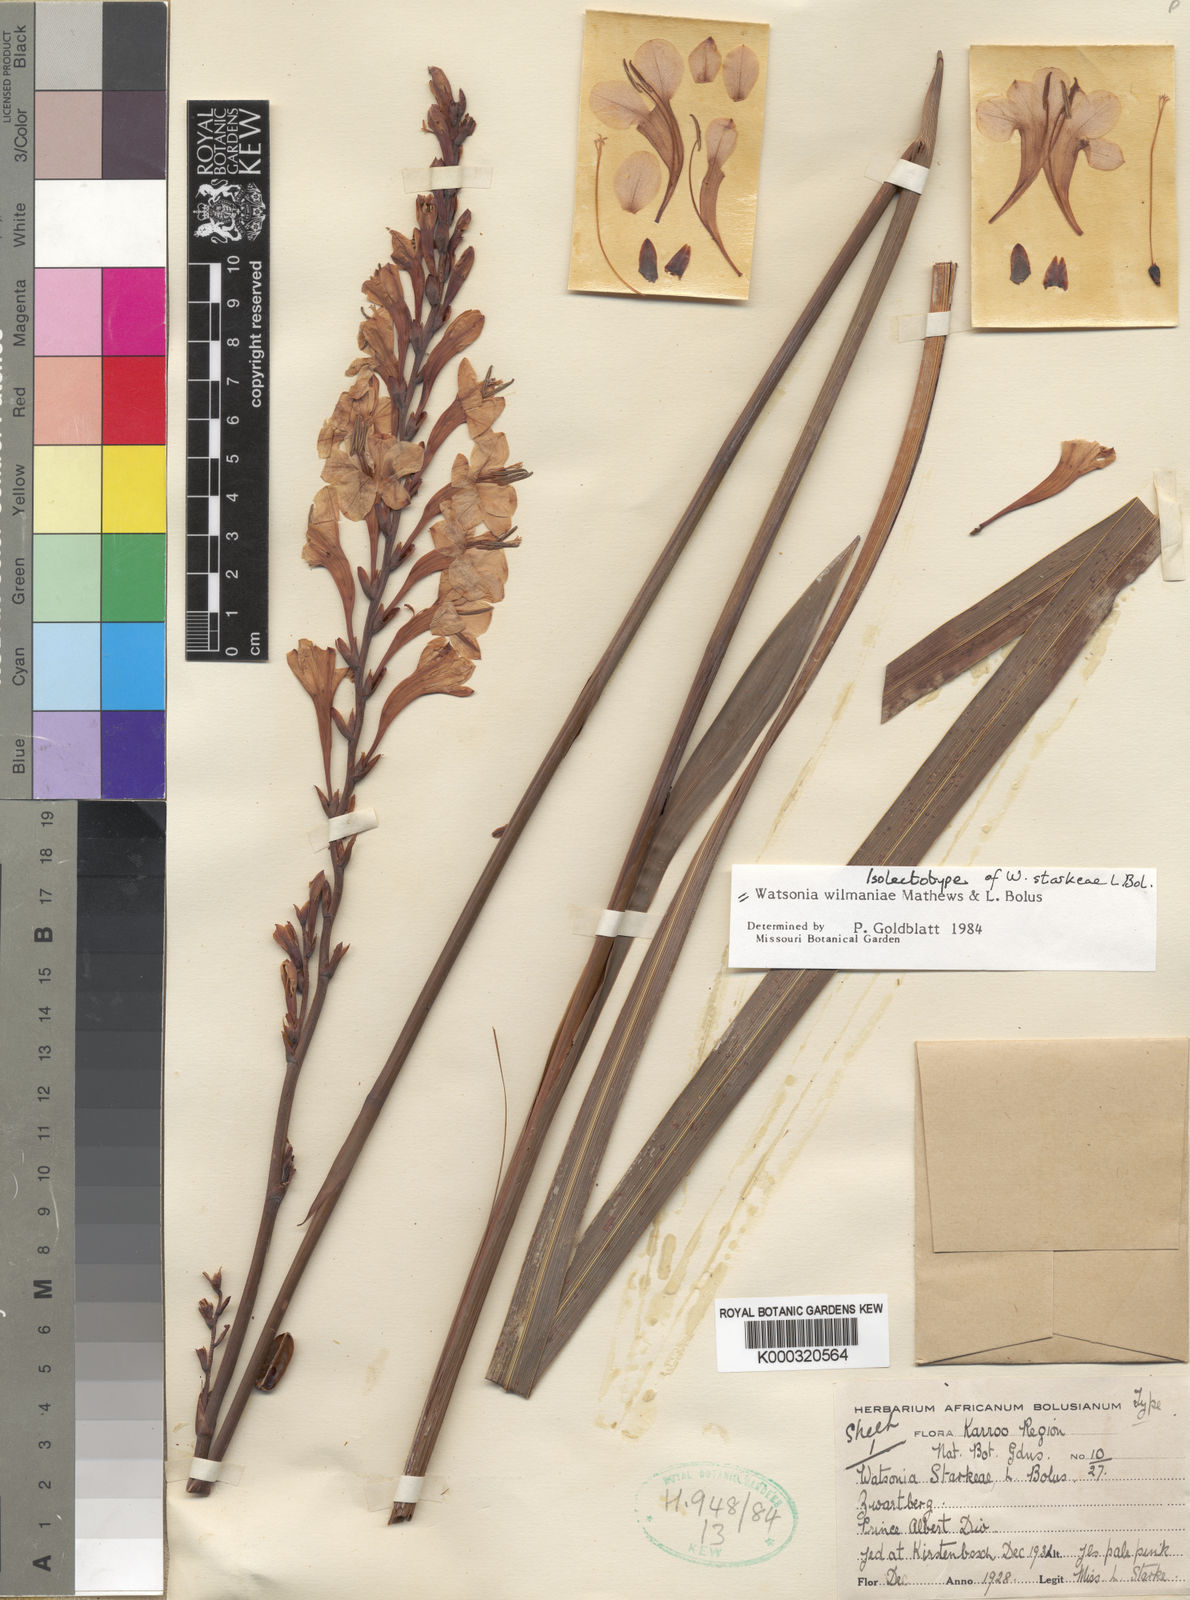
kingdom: Plantae
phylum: Tracheophyta
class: Liliopsida
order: Asparagales
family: Iridaceae
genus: Watsonia
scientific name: Watsonia wilmaniae
